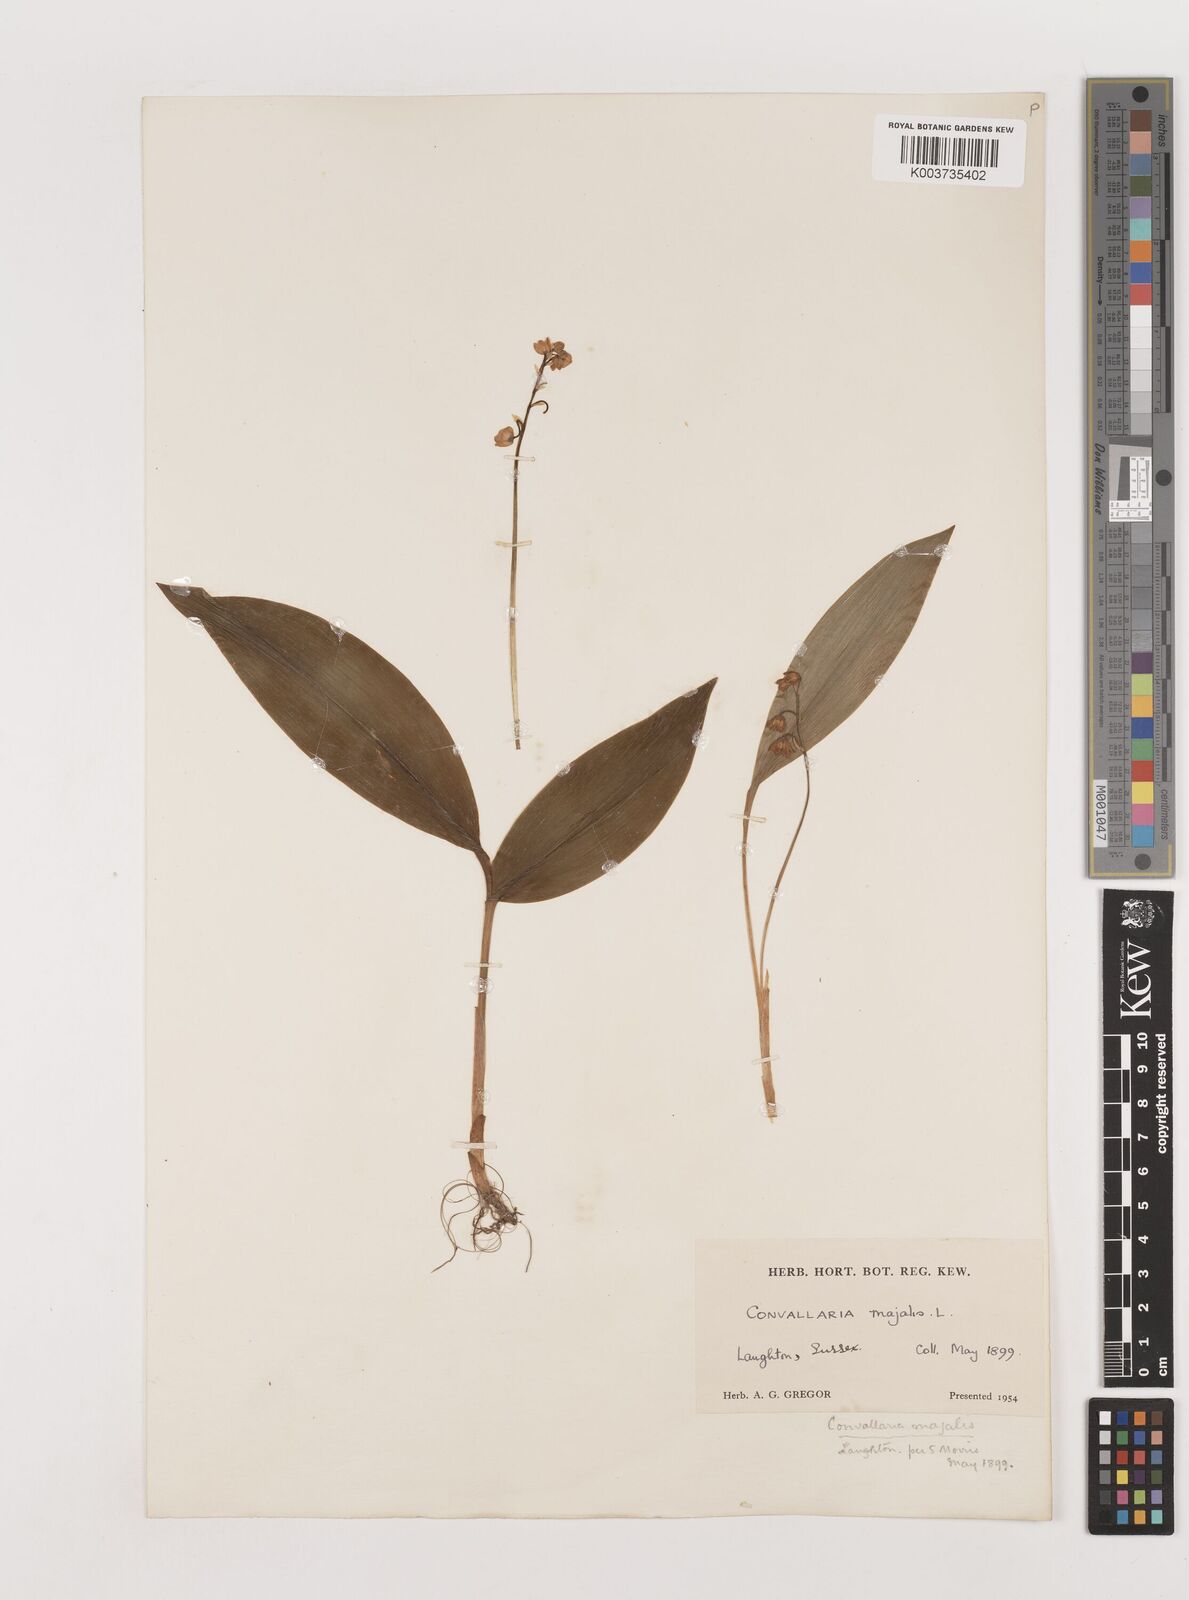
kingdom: Plantae
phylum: Tracheophyta
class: Liliopsida
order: Asparagales
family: Asparagaceae
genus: Convallaria
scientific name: Convallaria majalis
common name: Lily-of-the-valley
